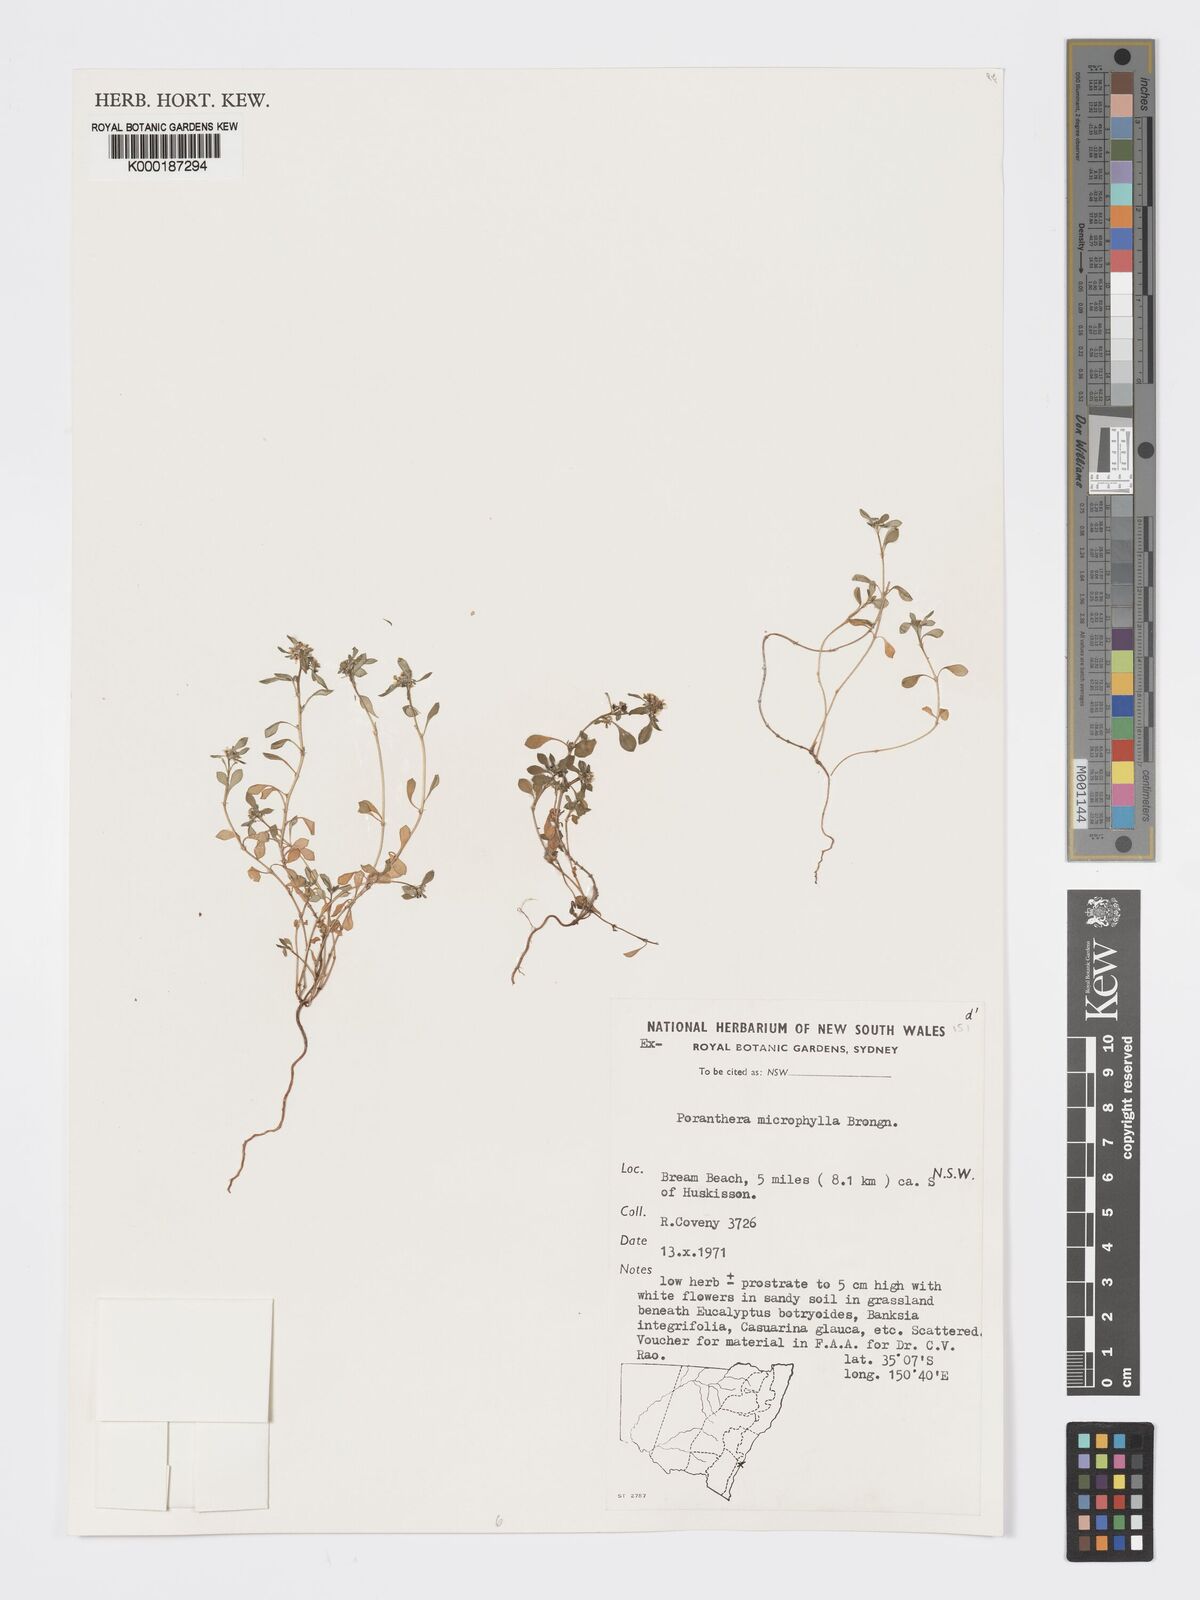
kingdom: Plantae
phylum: Tracheophyta
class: Magnoliopsida
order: Malpighiales
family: Phyllanthaceae
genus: Poranthera
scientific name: Poranthera microphylla
